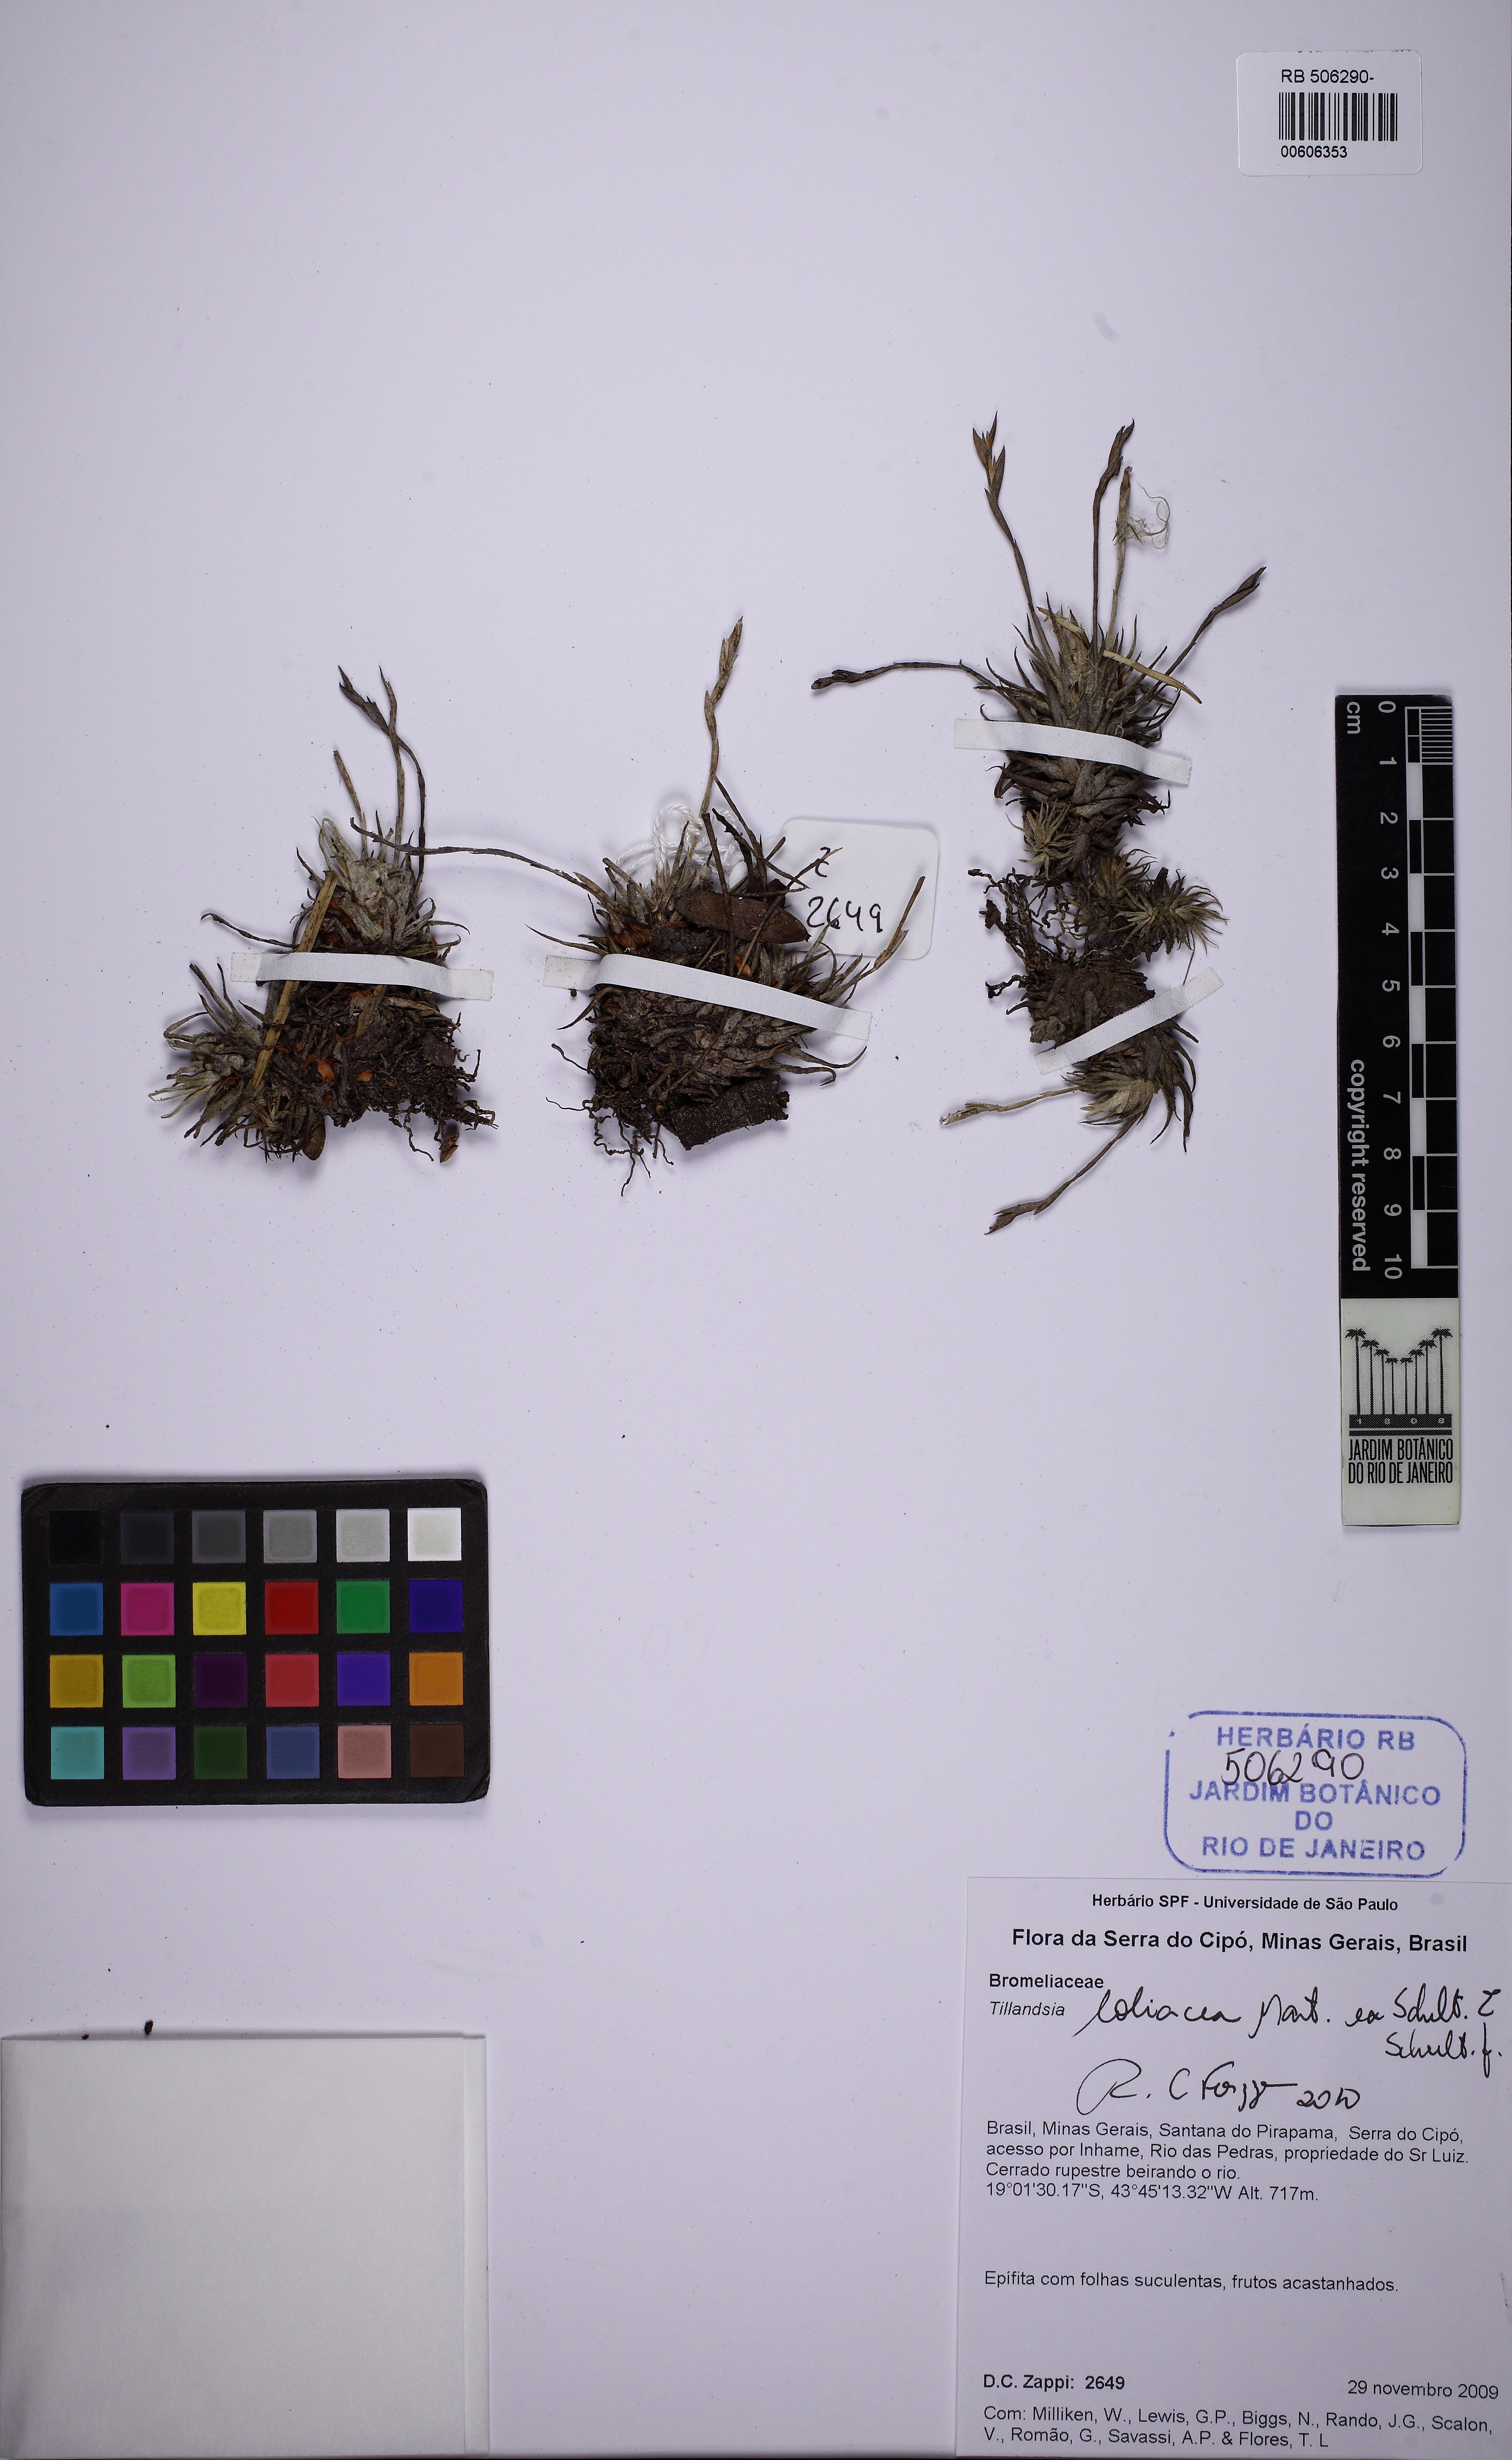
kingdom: Plantae
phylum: Tracheophyta
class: Liliopsida
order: Poales
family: Bromeliaceae
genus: Tillandsia
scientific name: Tillandsia loliacea
